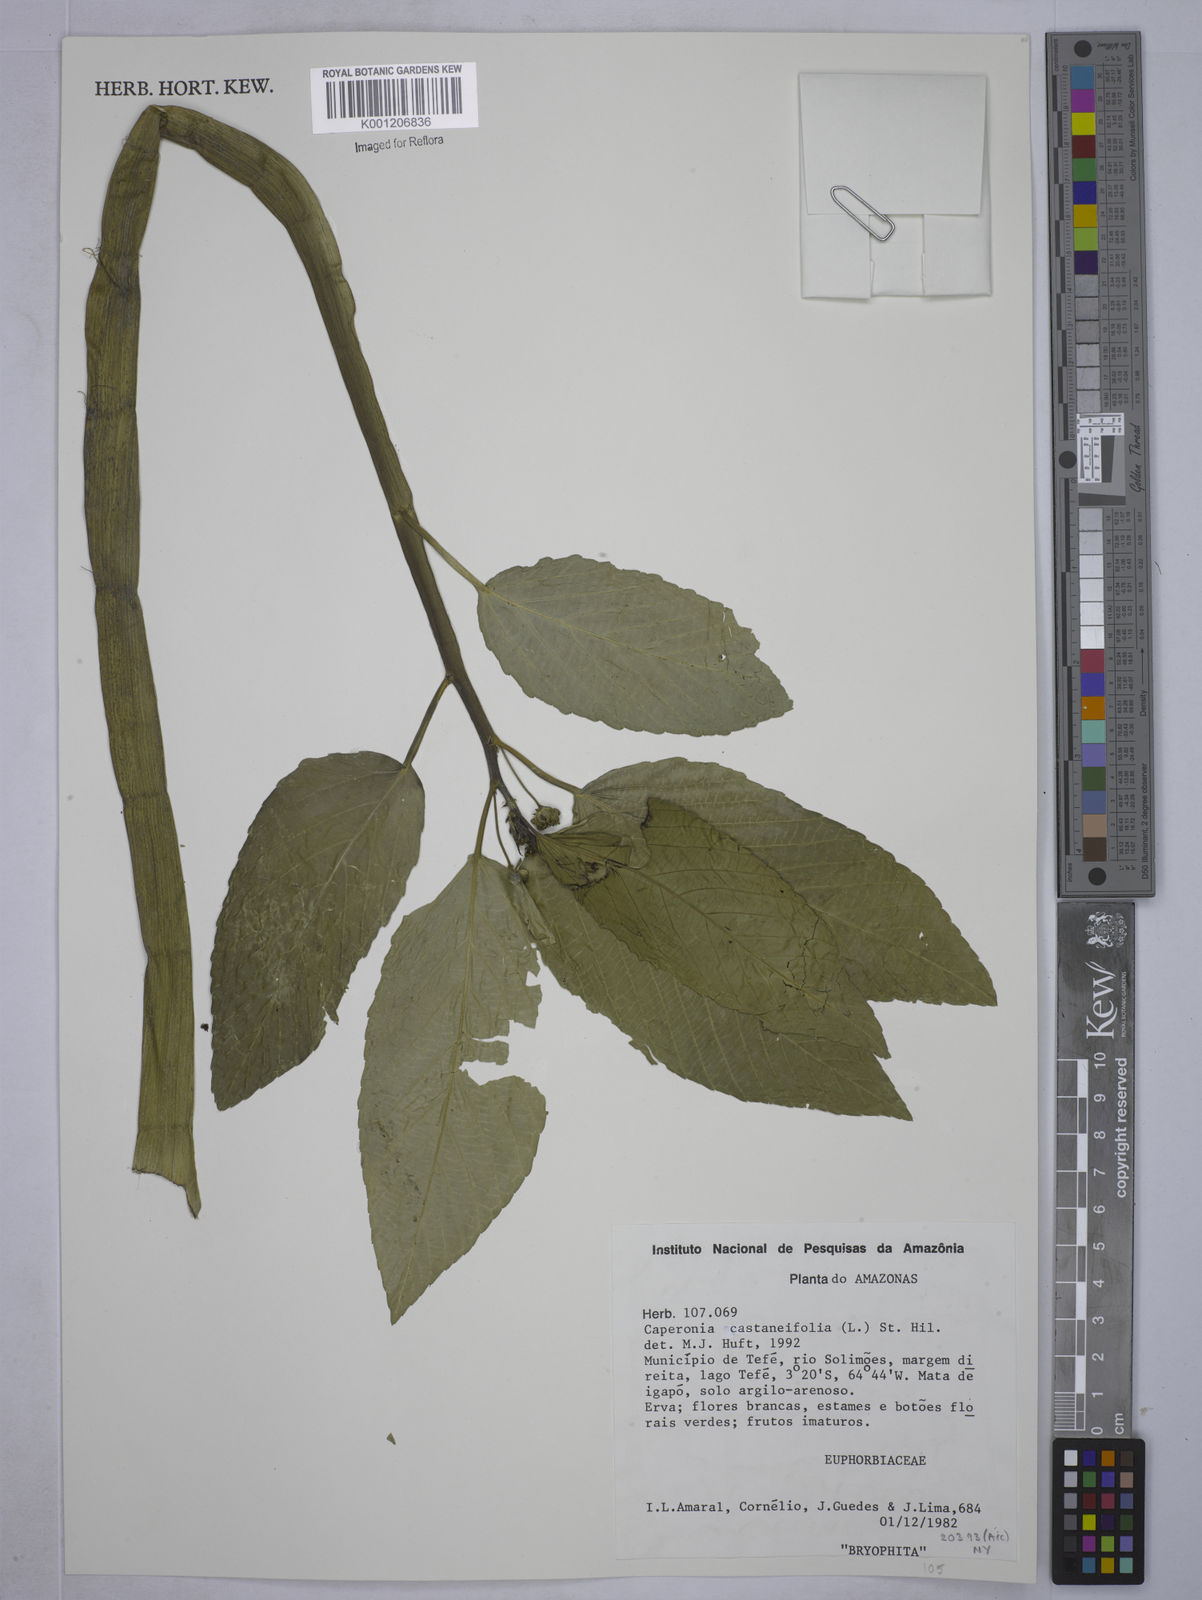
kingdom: Plantae
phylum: Tracheophyta
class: Magnoliopsida
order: Malpighiales
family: Euphorbiaceae
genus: Caperonia
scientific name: Caperonia castaneifolia
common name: Chestnutleaf false croton
